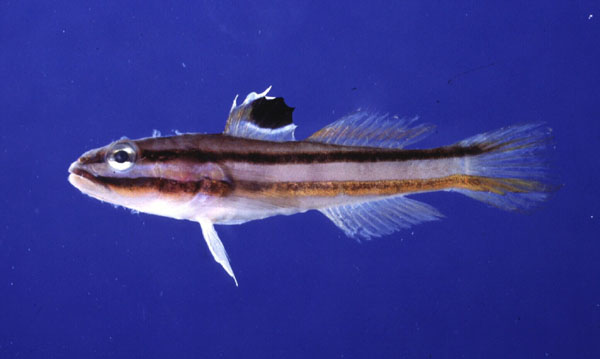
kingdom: Animalia
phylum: Chordata
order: Perciformes
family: Gobiidae
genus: Valenciennea
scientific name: Valenciennea helsdingenii
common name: Twostripe goby
